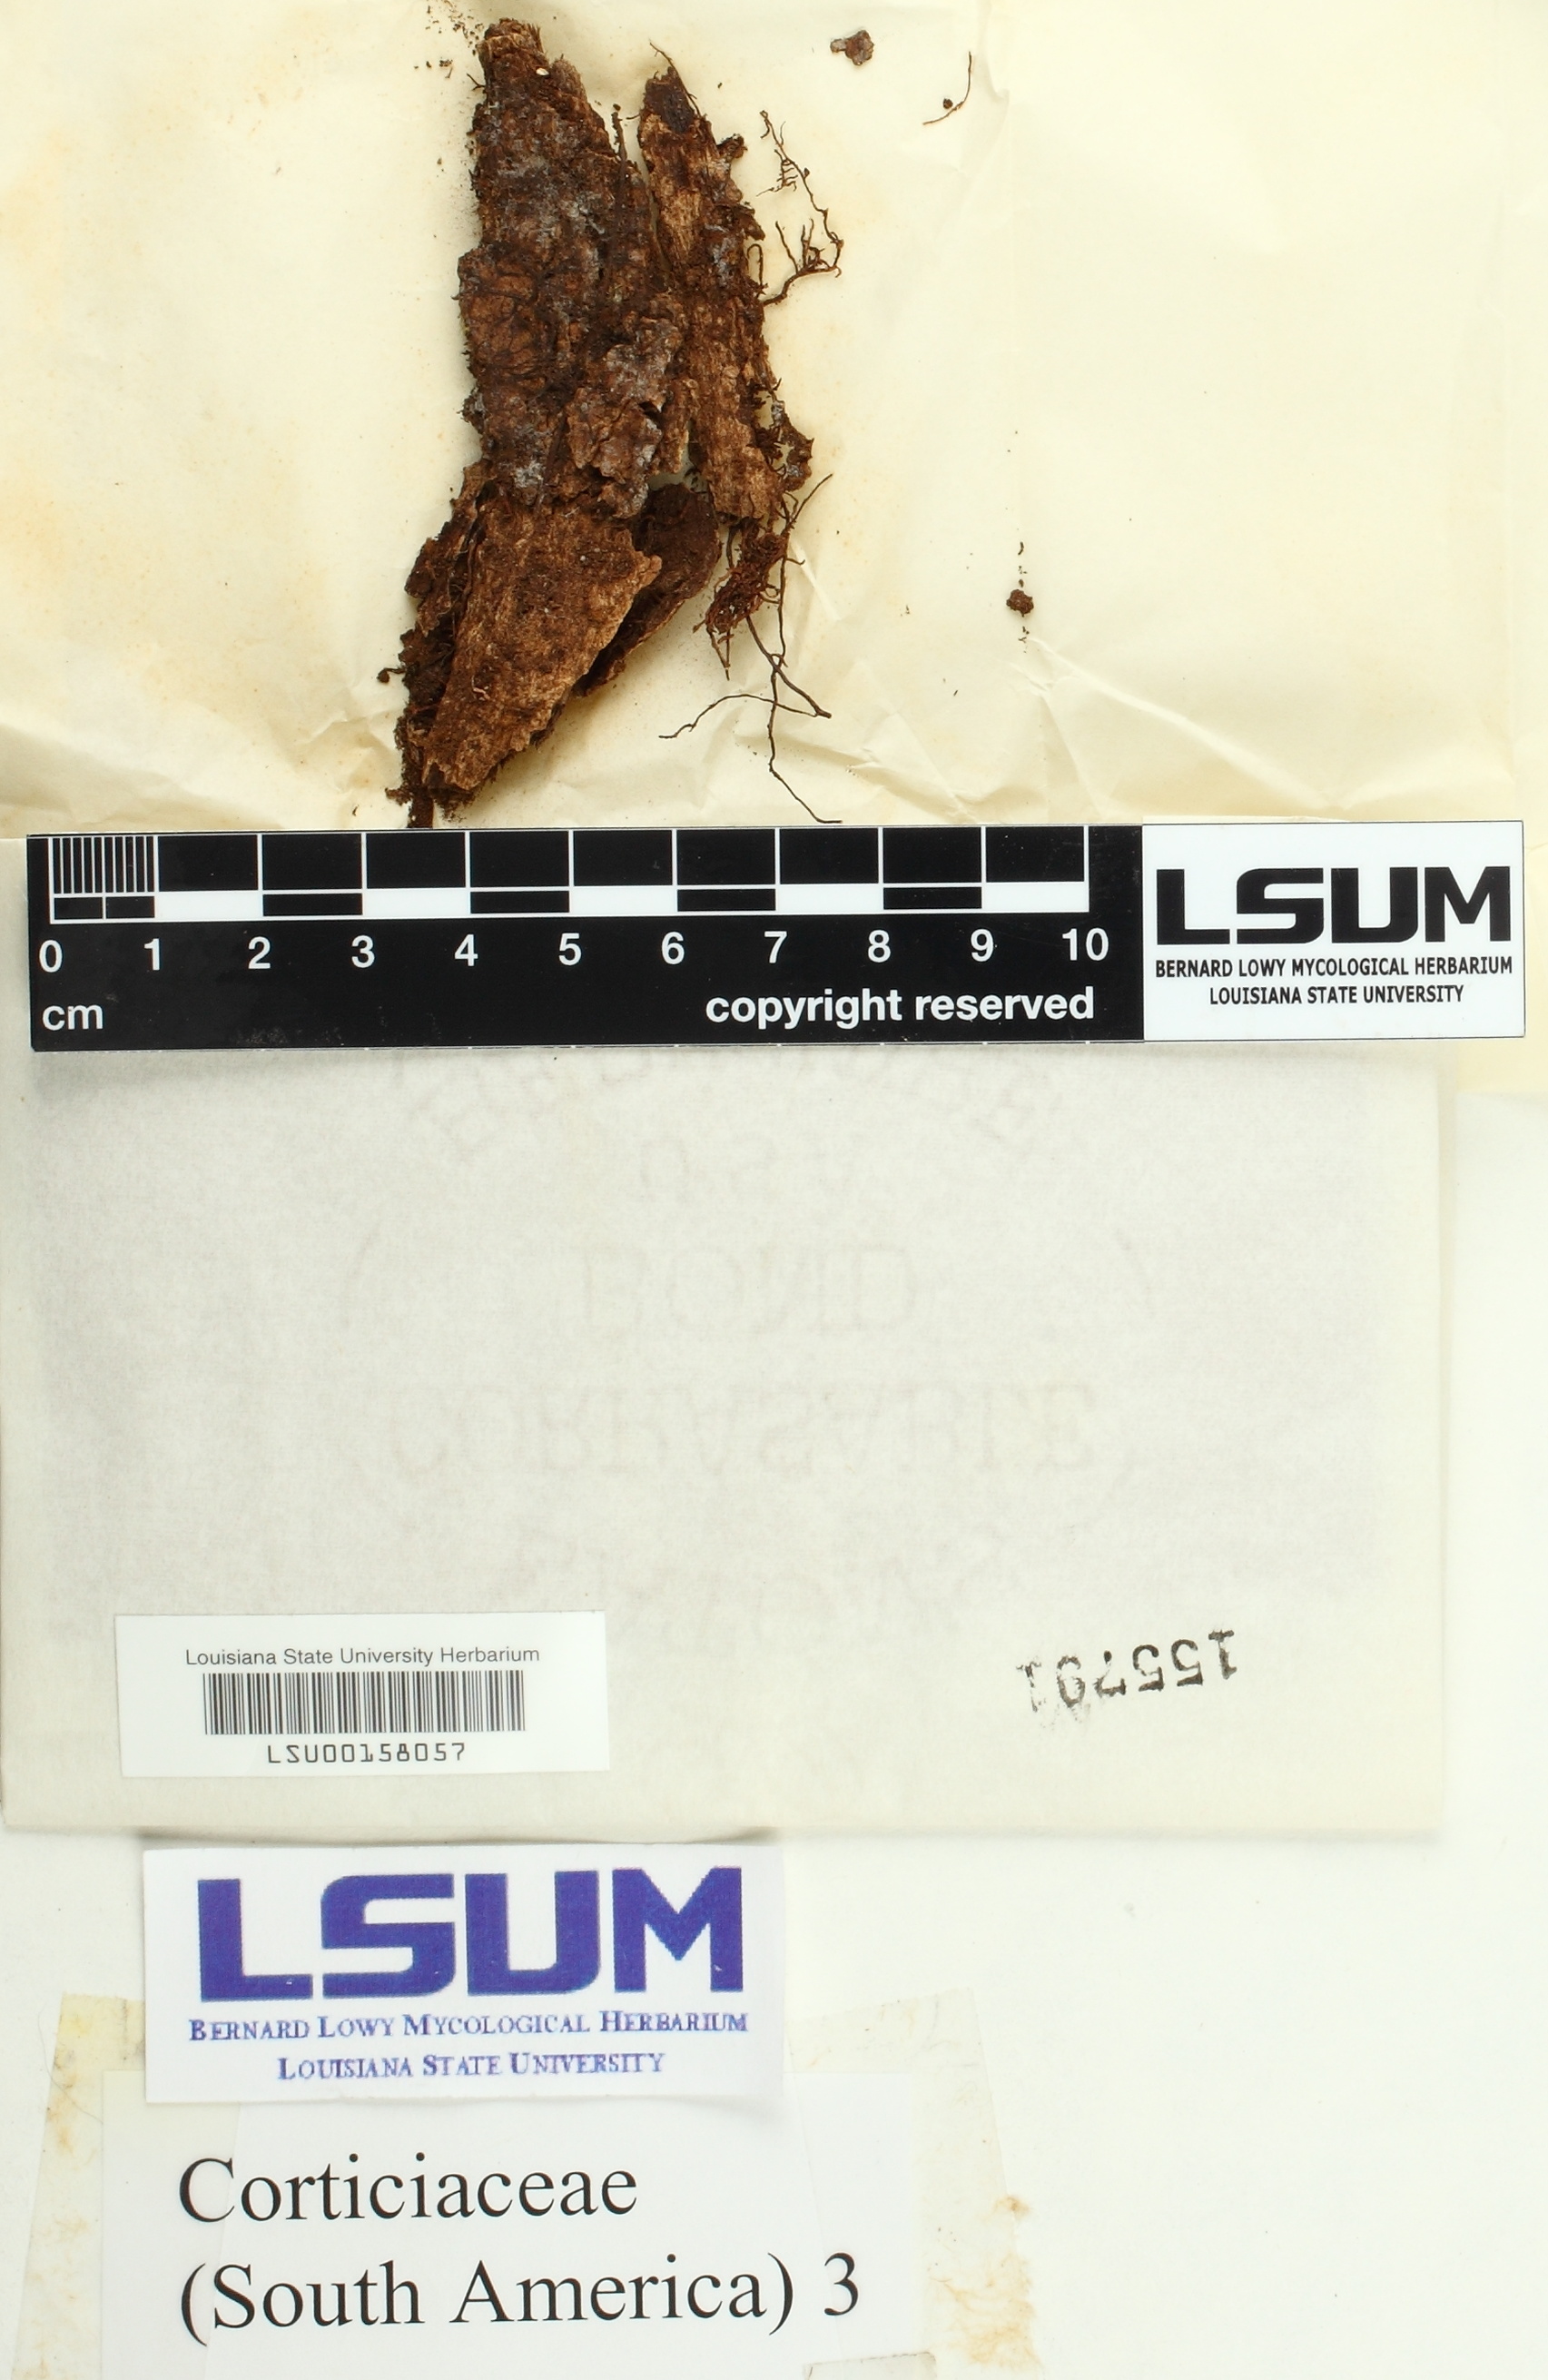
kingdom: Fungi
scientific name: Fungi
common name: Fungi
